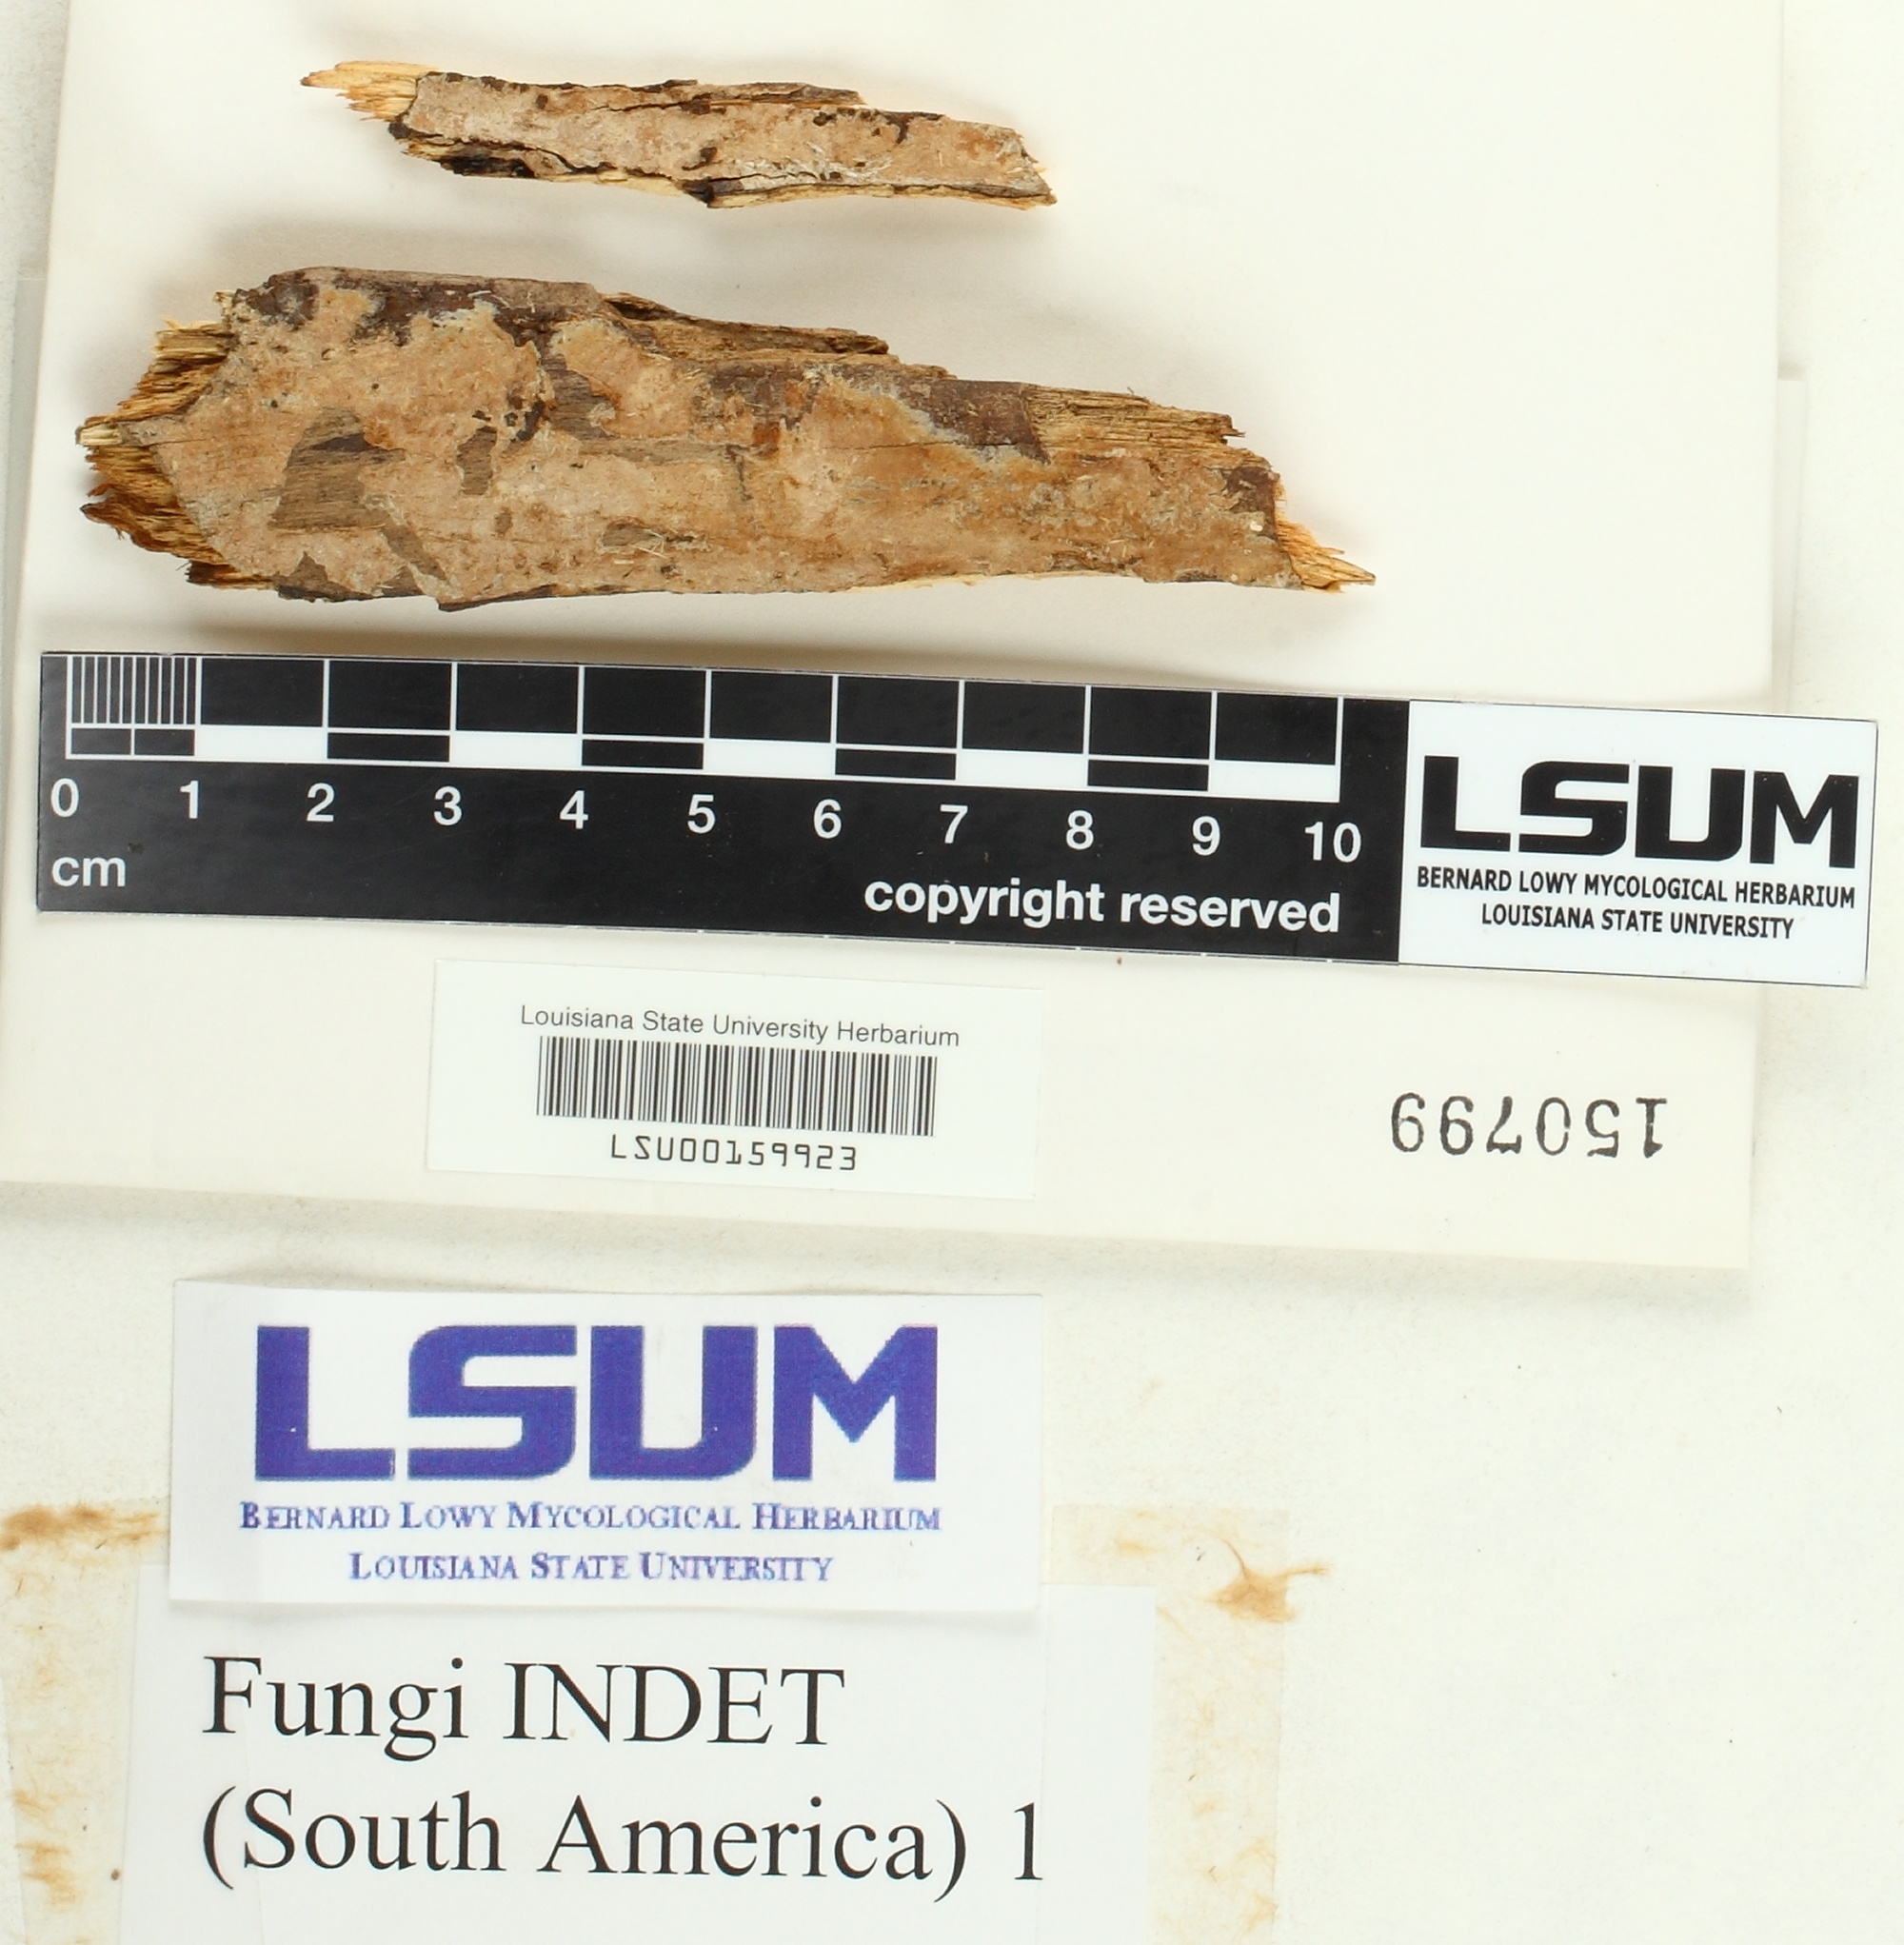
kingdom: Fungi
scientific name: Fungi
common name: Fungi
